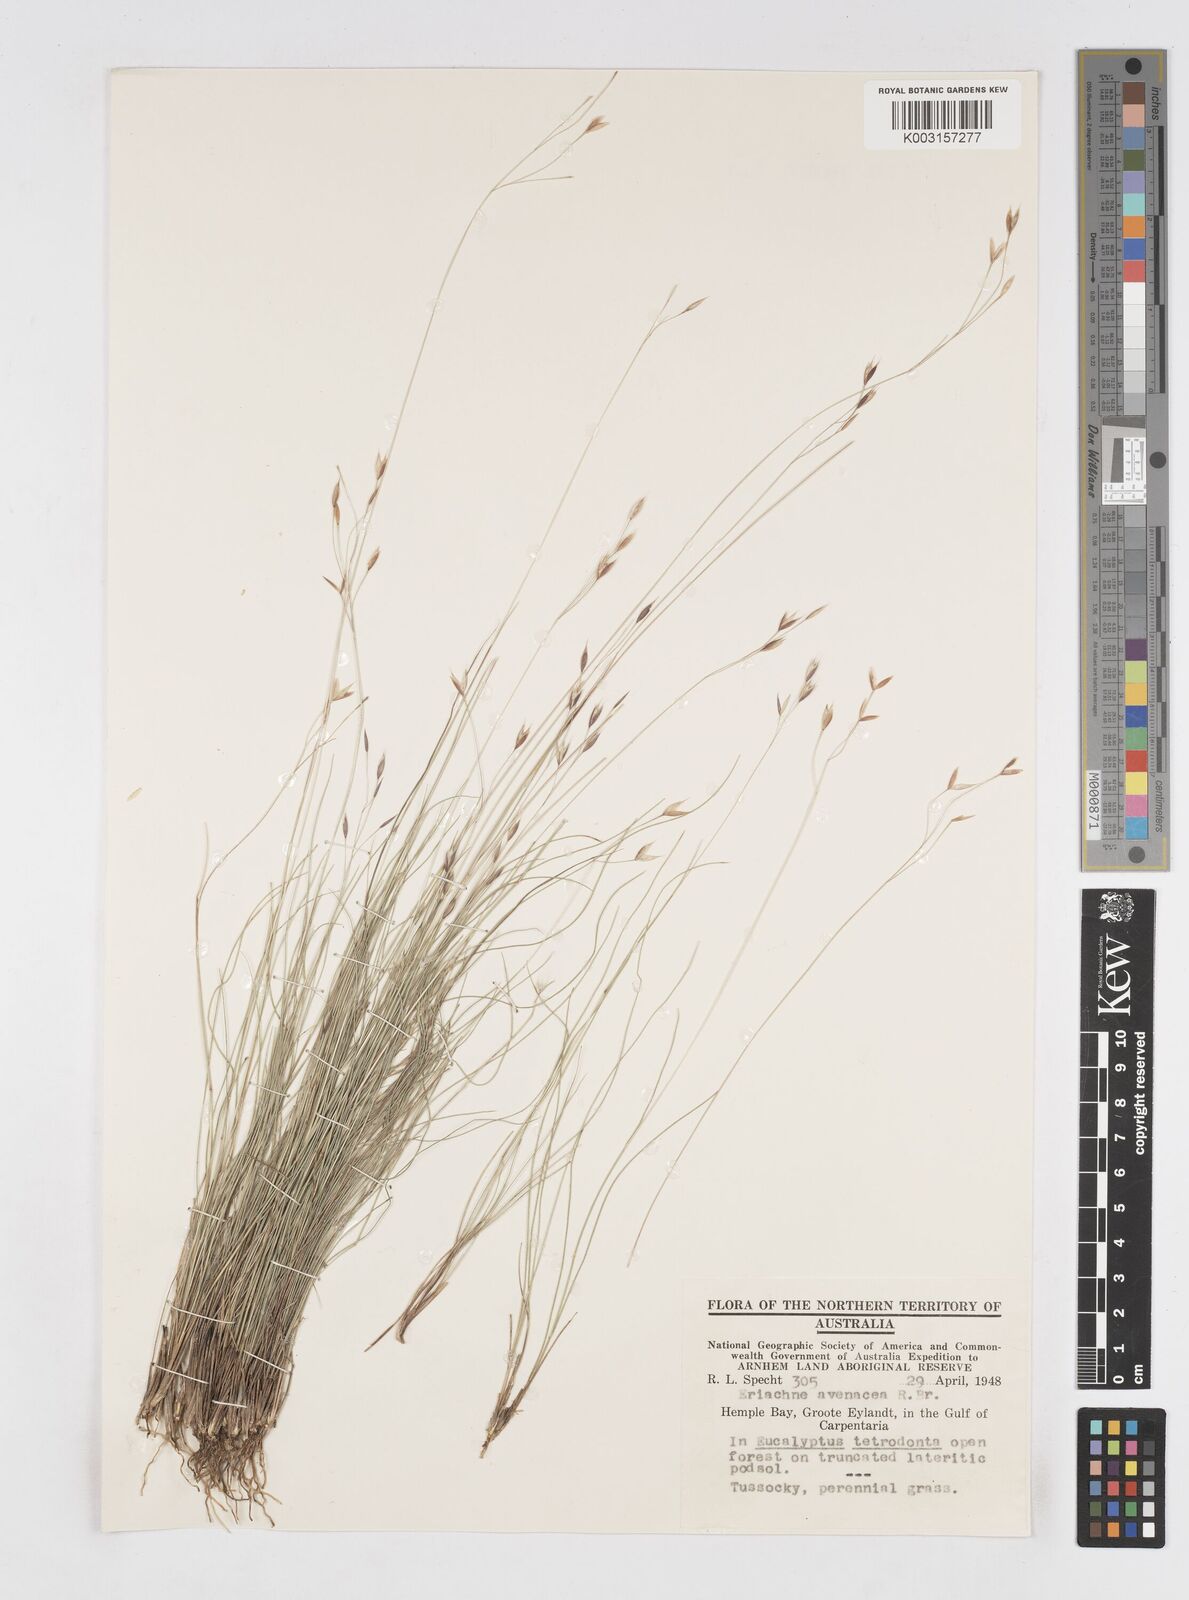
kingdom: Plantae
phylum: Tracheophyta
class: Liliopsida
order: Poales
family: Poaceae
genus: Eriachne
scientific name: Eriachne avenacea
